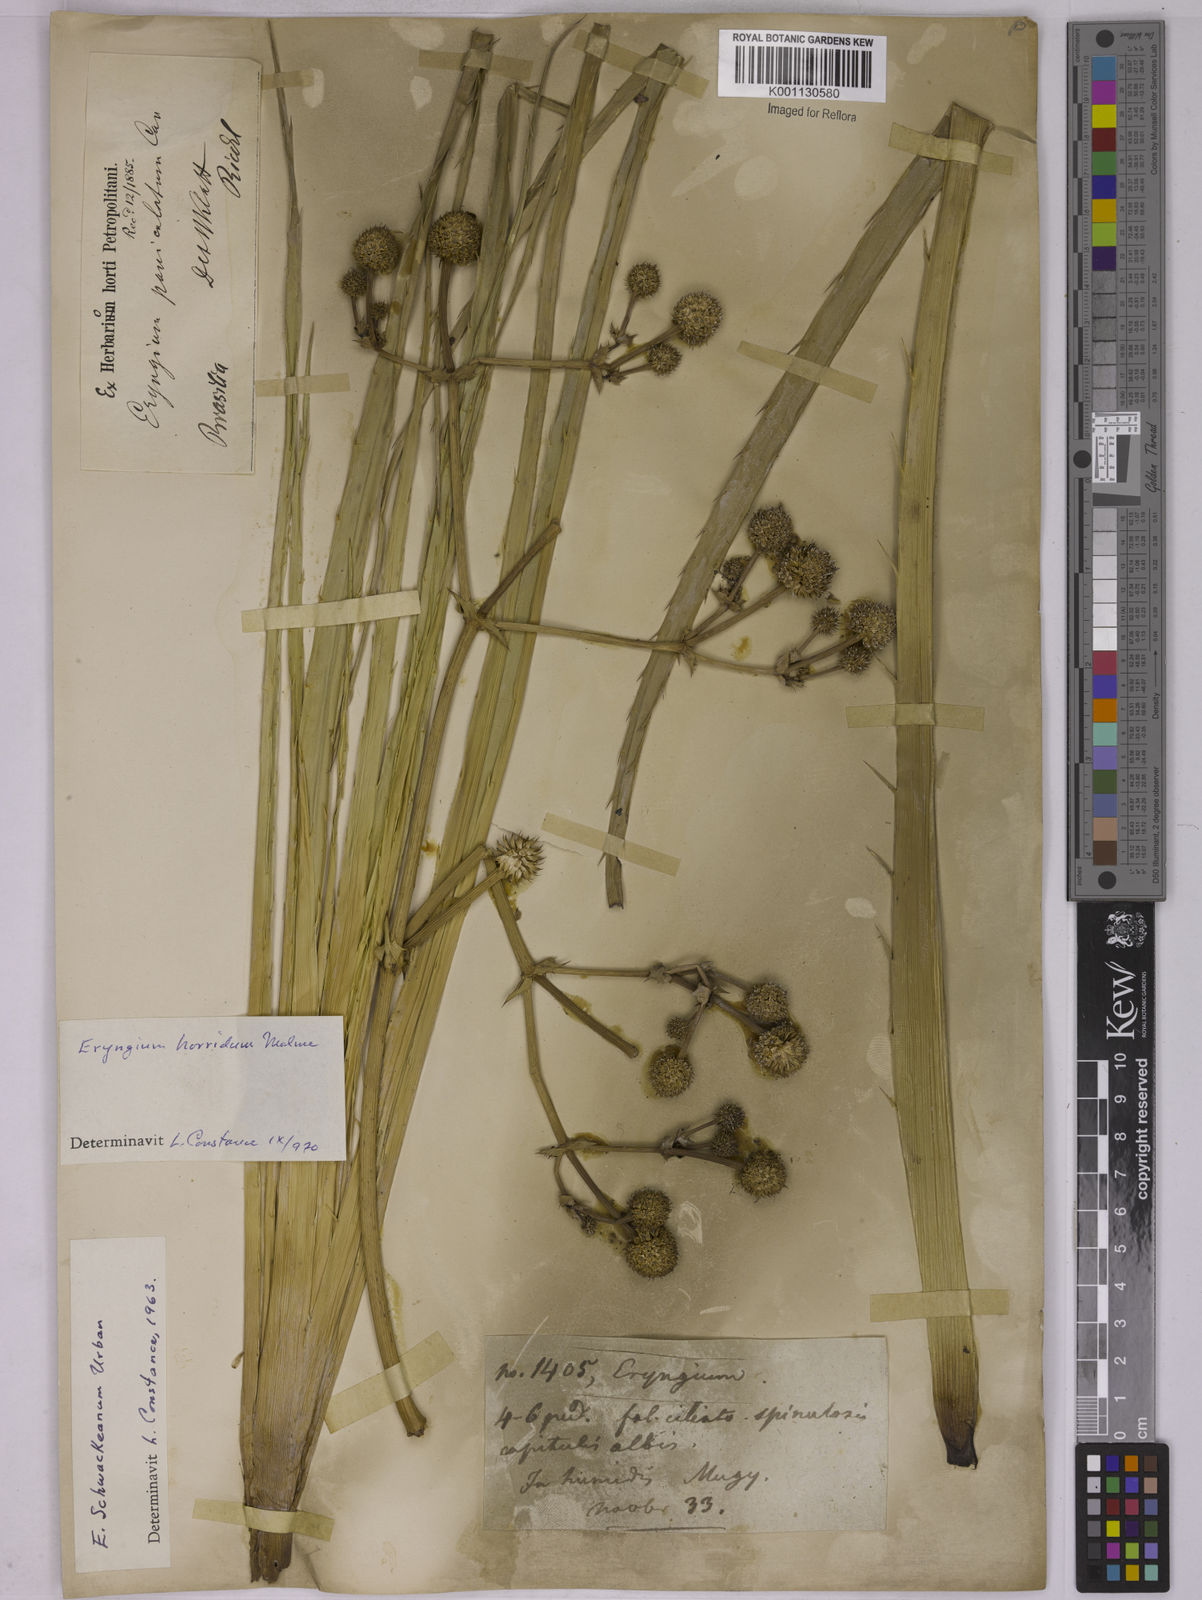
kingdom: Plantae
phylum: Tracheophyta
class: Magnoliopsida
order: Apiales
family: Apiaceae
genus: Eryngium
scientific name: Eryngium horridum
